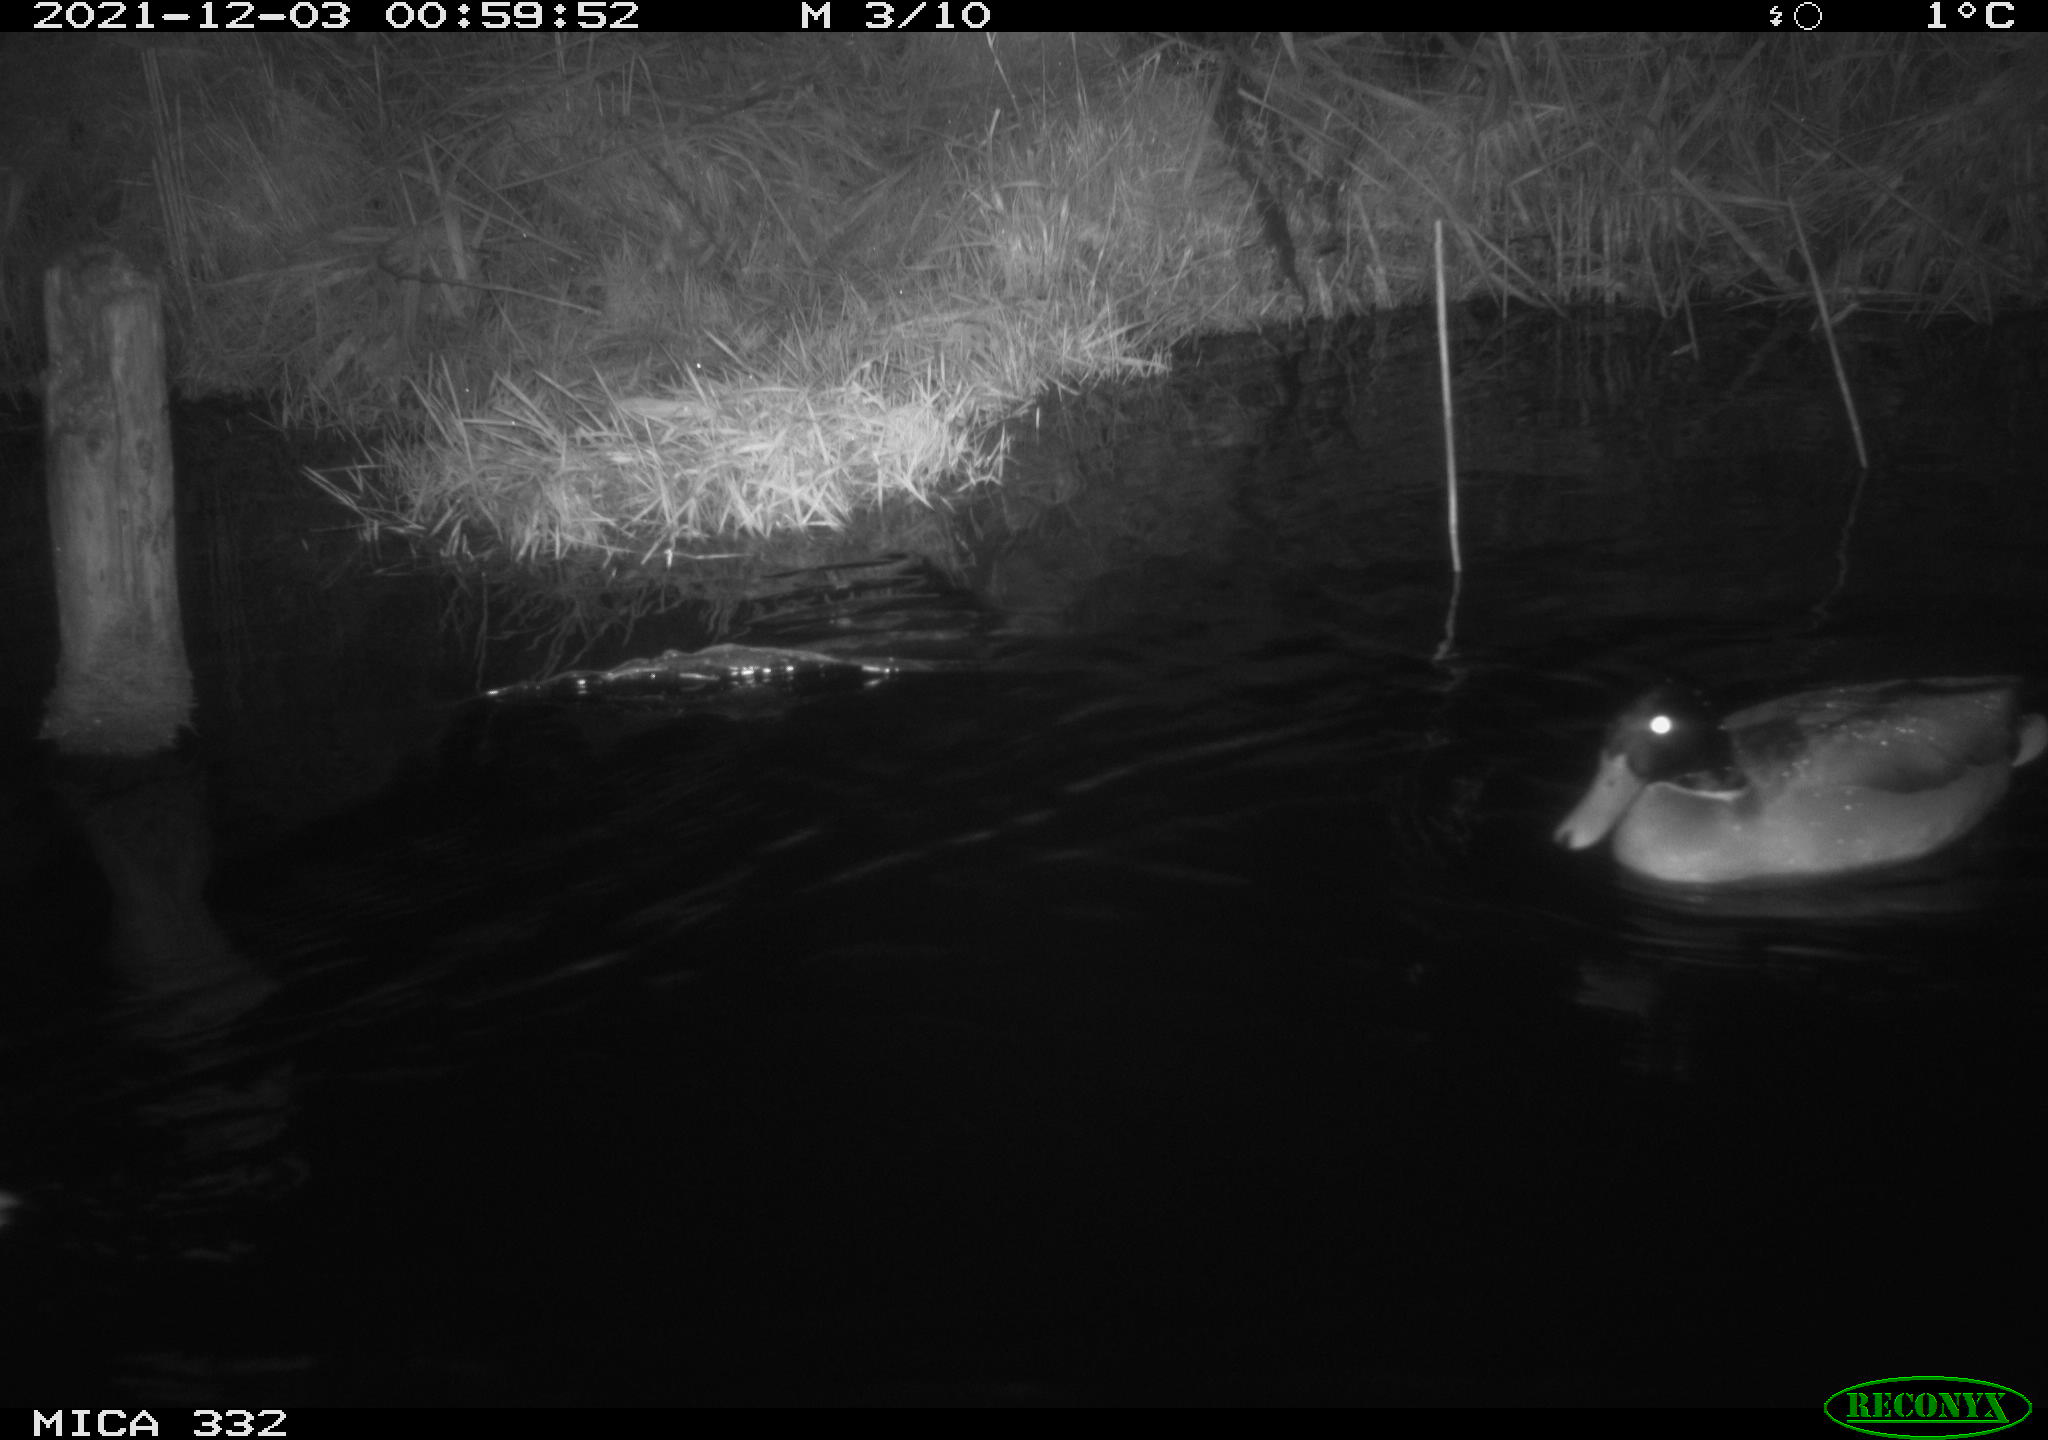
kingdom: Animalia
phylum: Chordata
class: Aves
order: Anseriformes
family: Anatidae
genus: Anas
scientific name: Anas platyrhynchos
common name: Mallard
